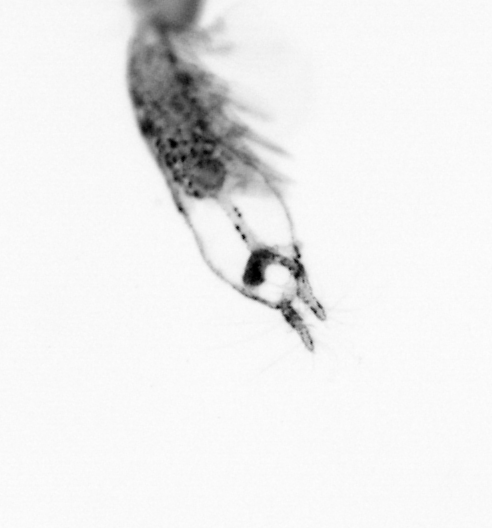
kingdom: Animalia
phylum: Arthropoda
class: Copepoda
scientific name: Copepoda
